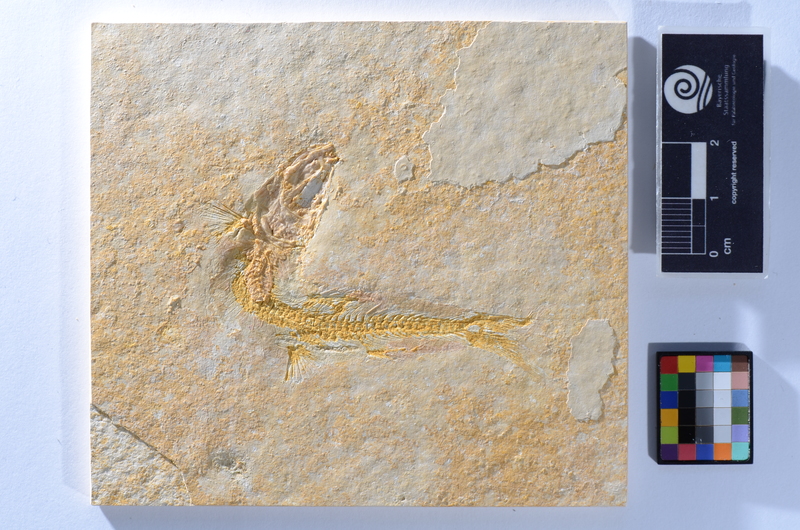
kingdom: Animalia
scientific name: Animalia
